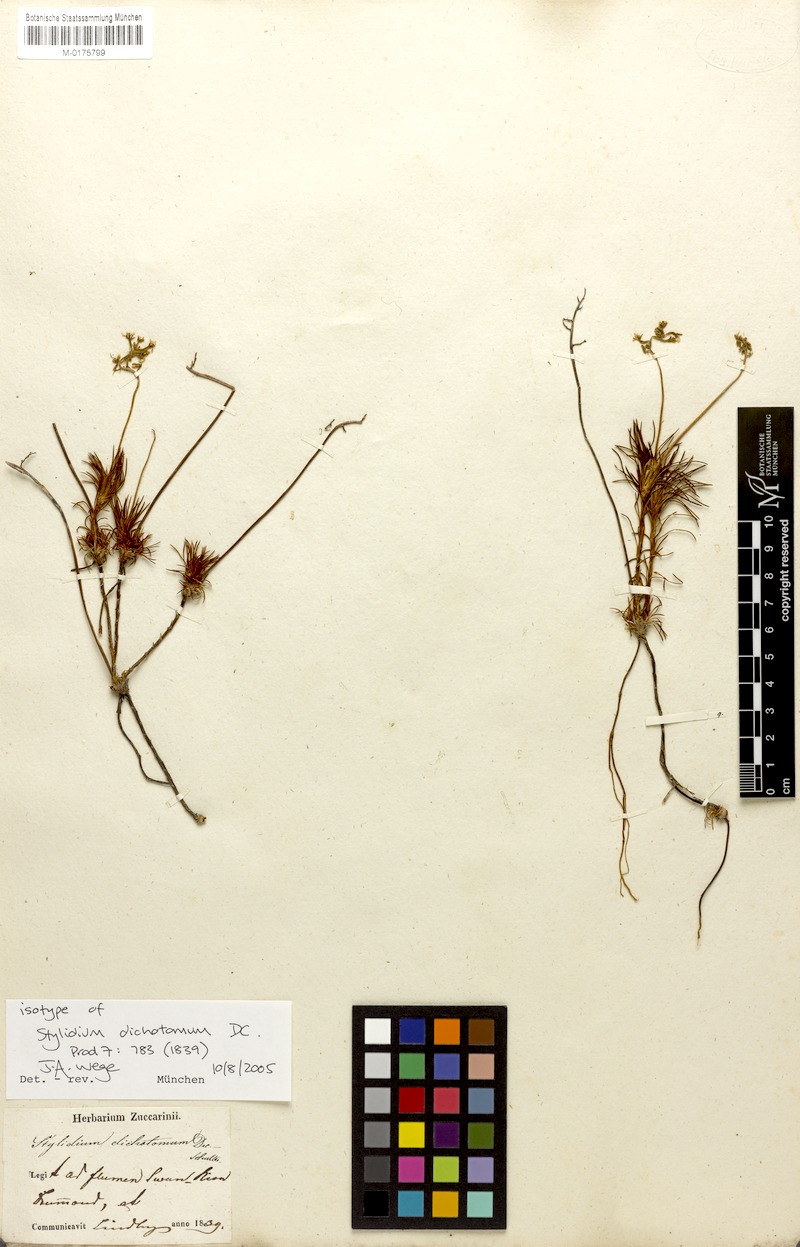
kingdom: Plantae
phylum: Tracheophyta
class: Magnoliopsida
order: Asterales
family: Stylidiaceae
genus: Stylidium
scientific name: Stylidium dichotomum
